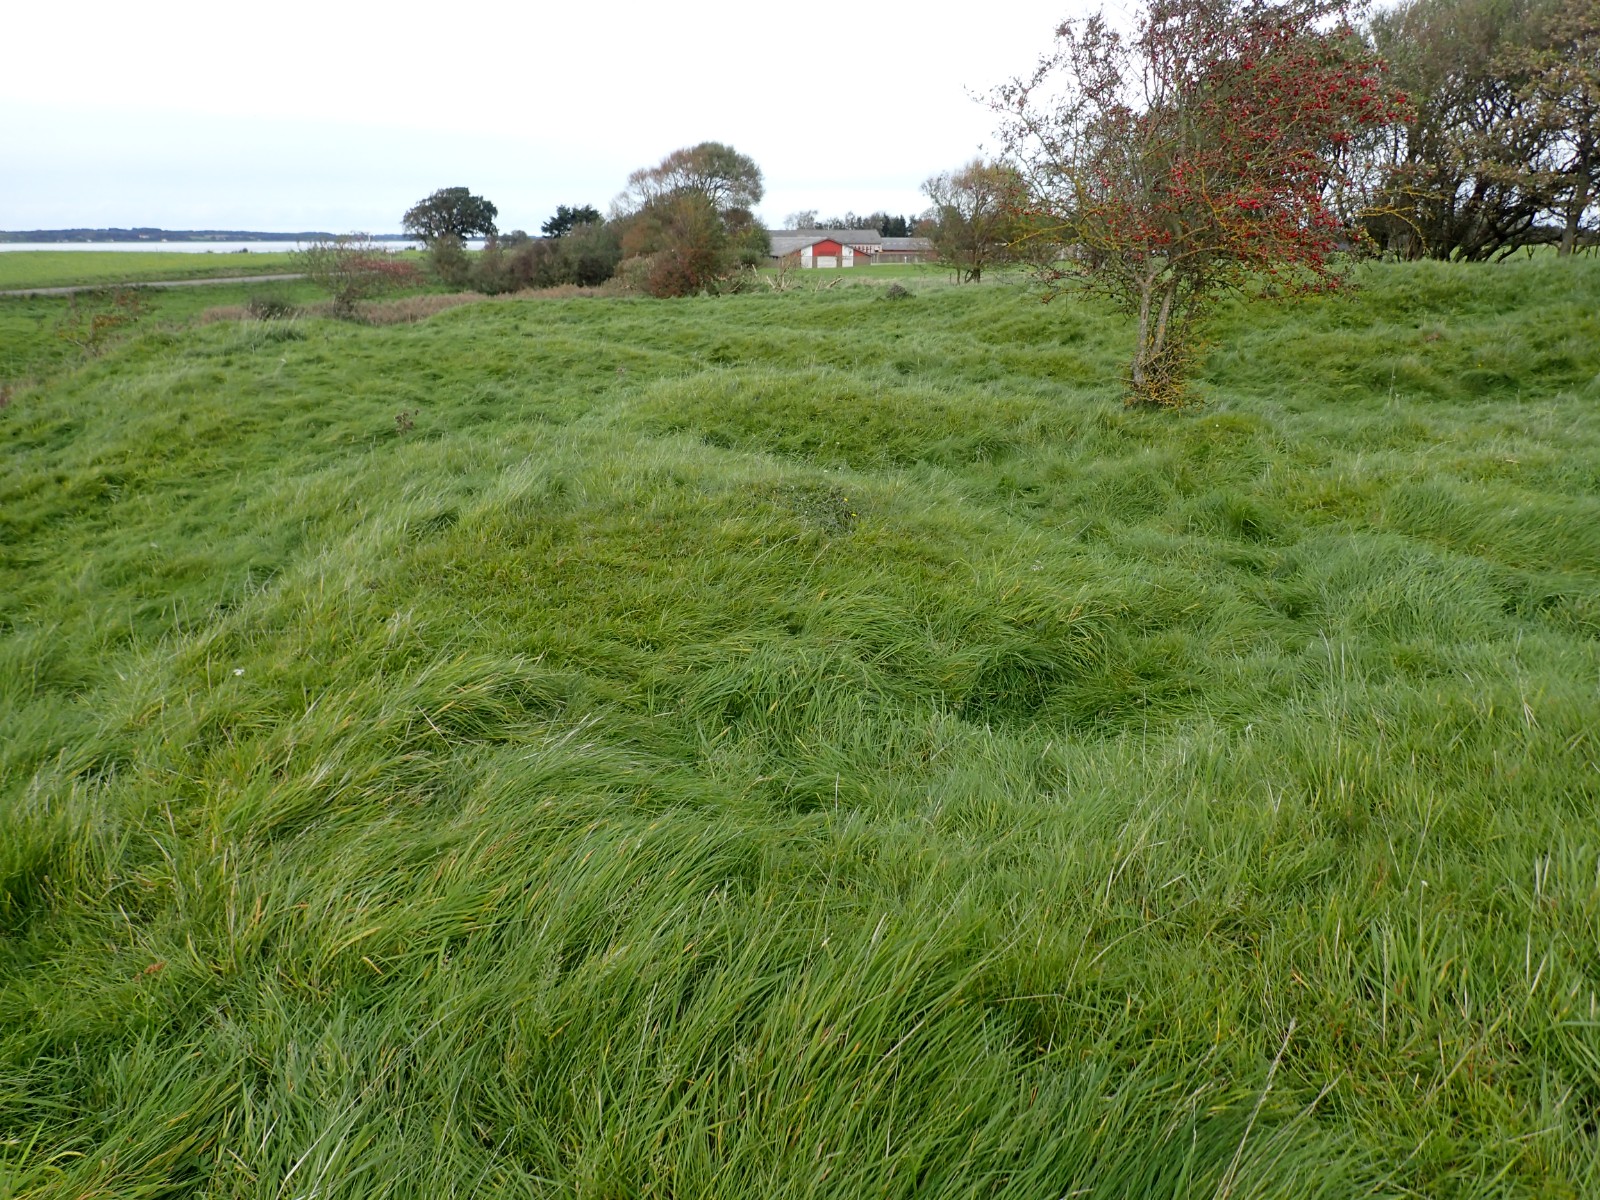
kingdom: Fungi
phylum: Basidiomycota
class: Agaricomycetes
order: Agaricales
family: Hygrophoraceae
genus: Gliophorus
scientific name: Gliophorus psittacinus
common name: papegøje-vokshat
